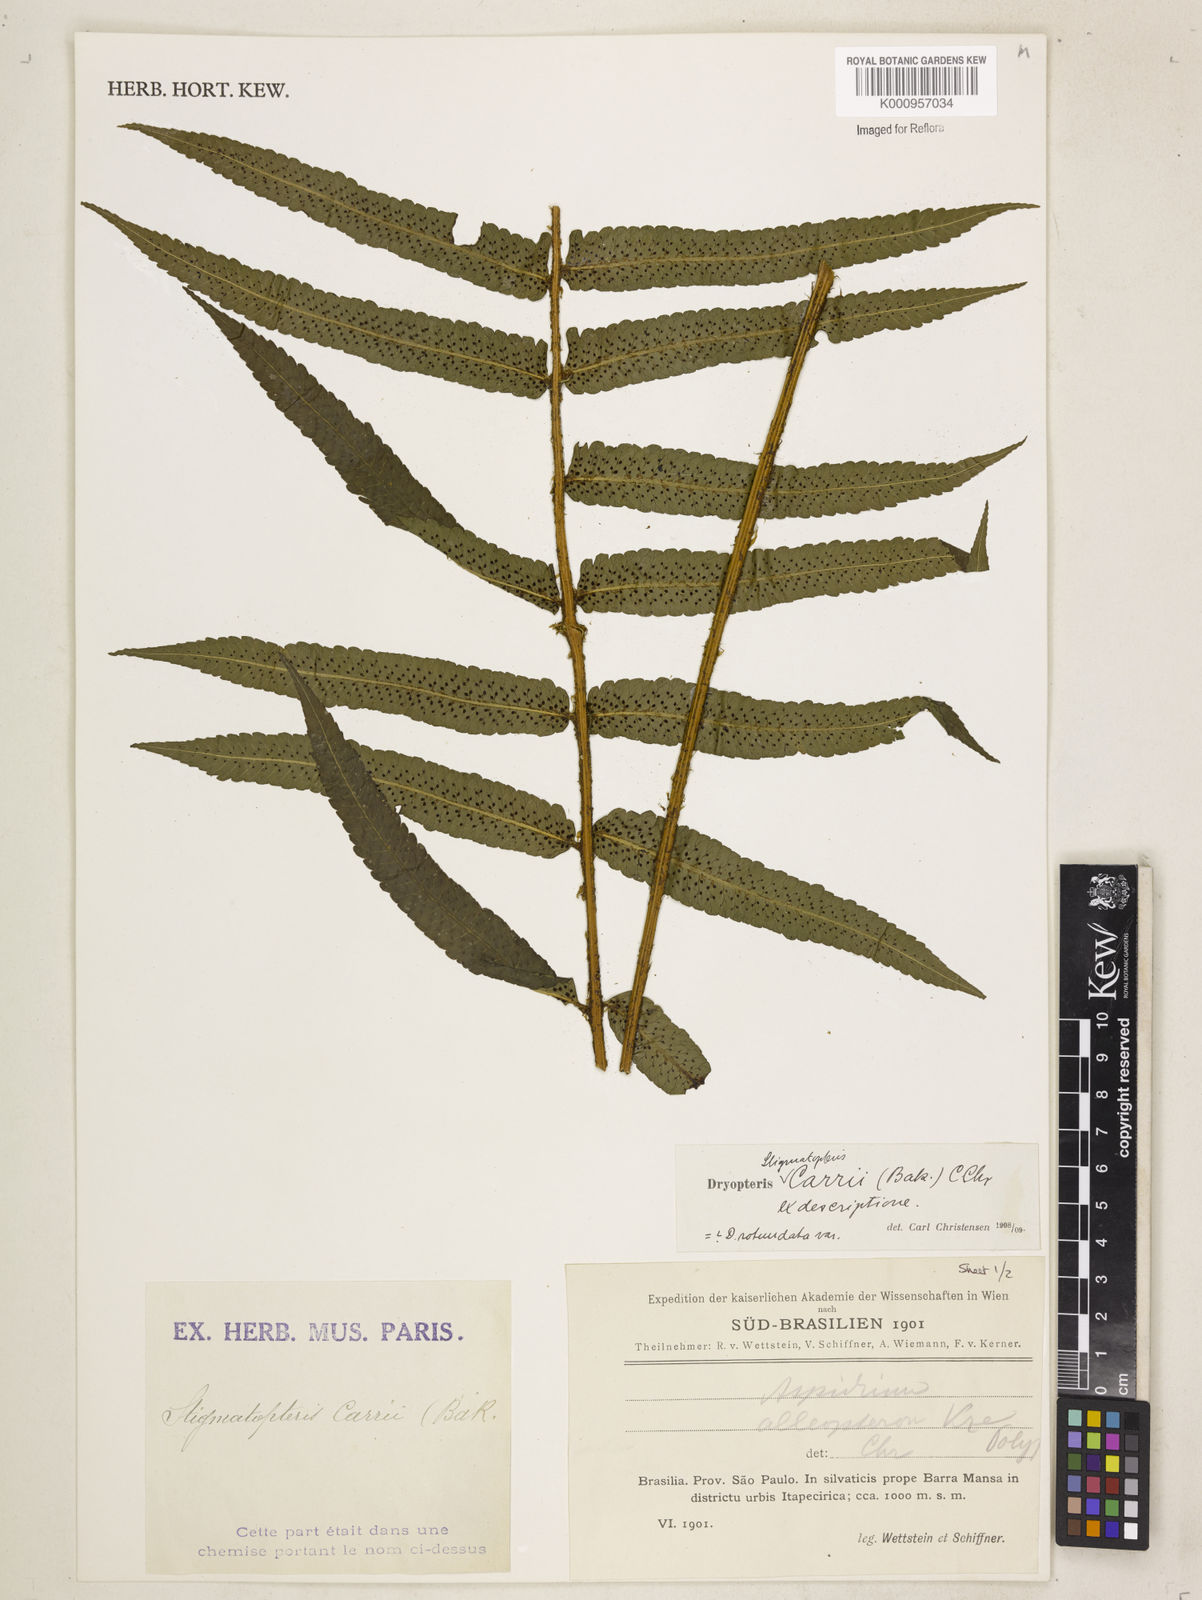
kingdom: Plantae
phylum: Tracheophyta
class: Polypodiopsida
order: Polypodiales
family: Dryopteridaceae
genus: Stigmatopteris
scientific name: Stigmatopteris
